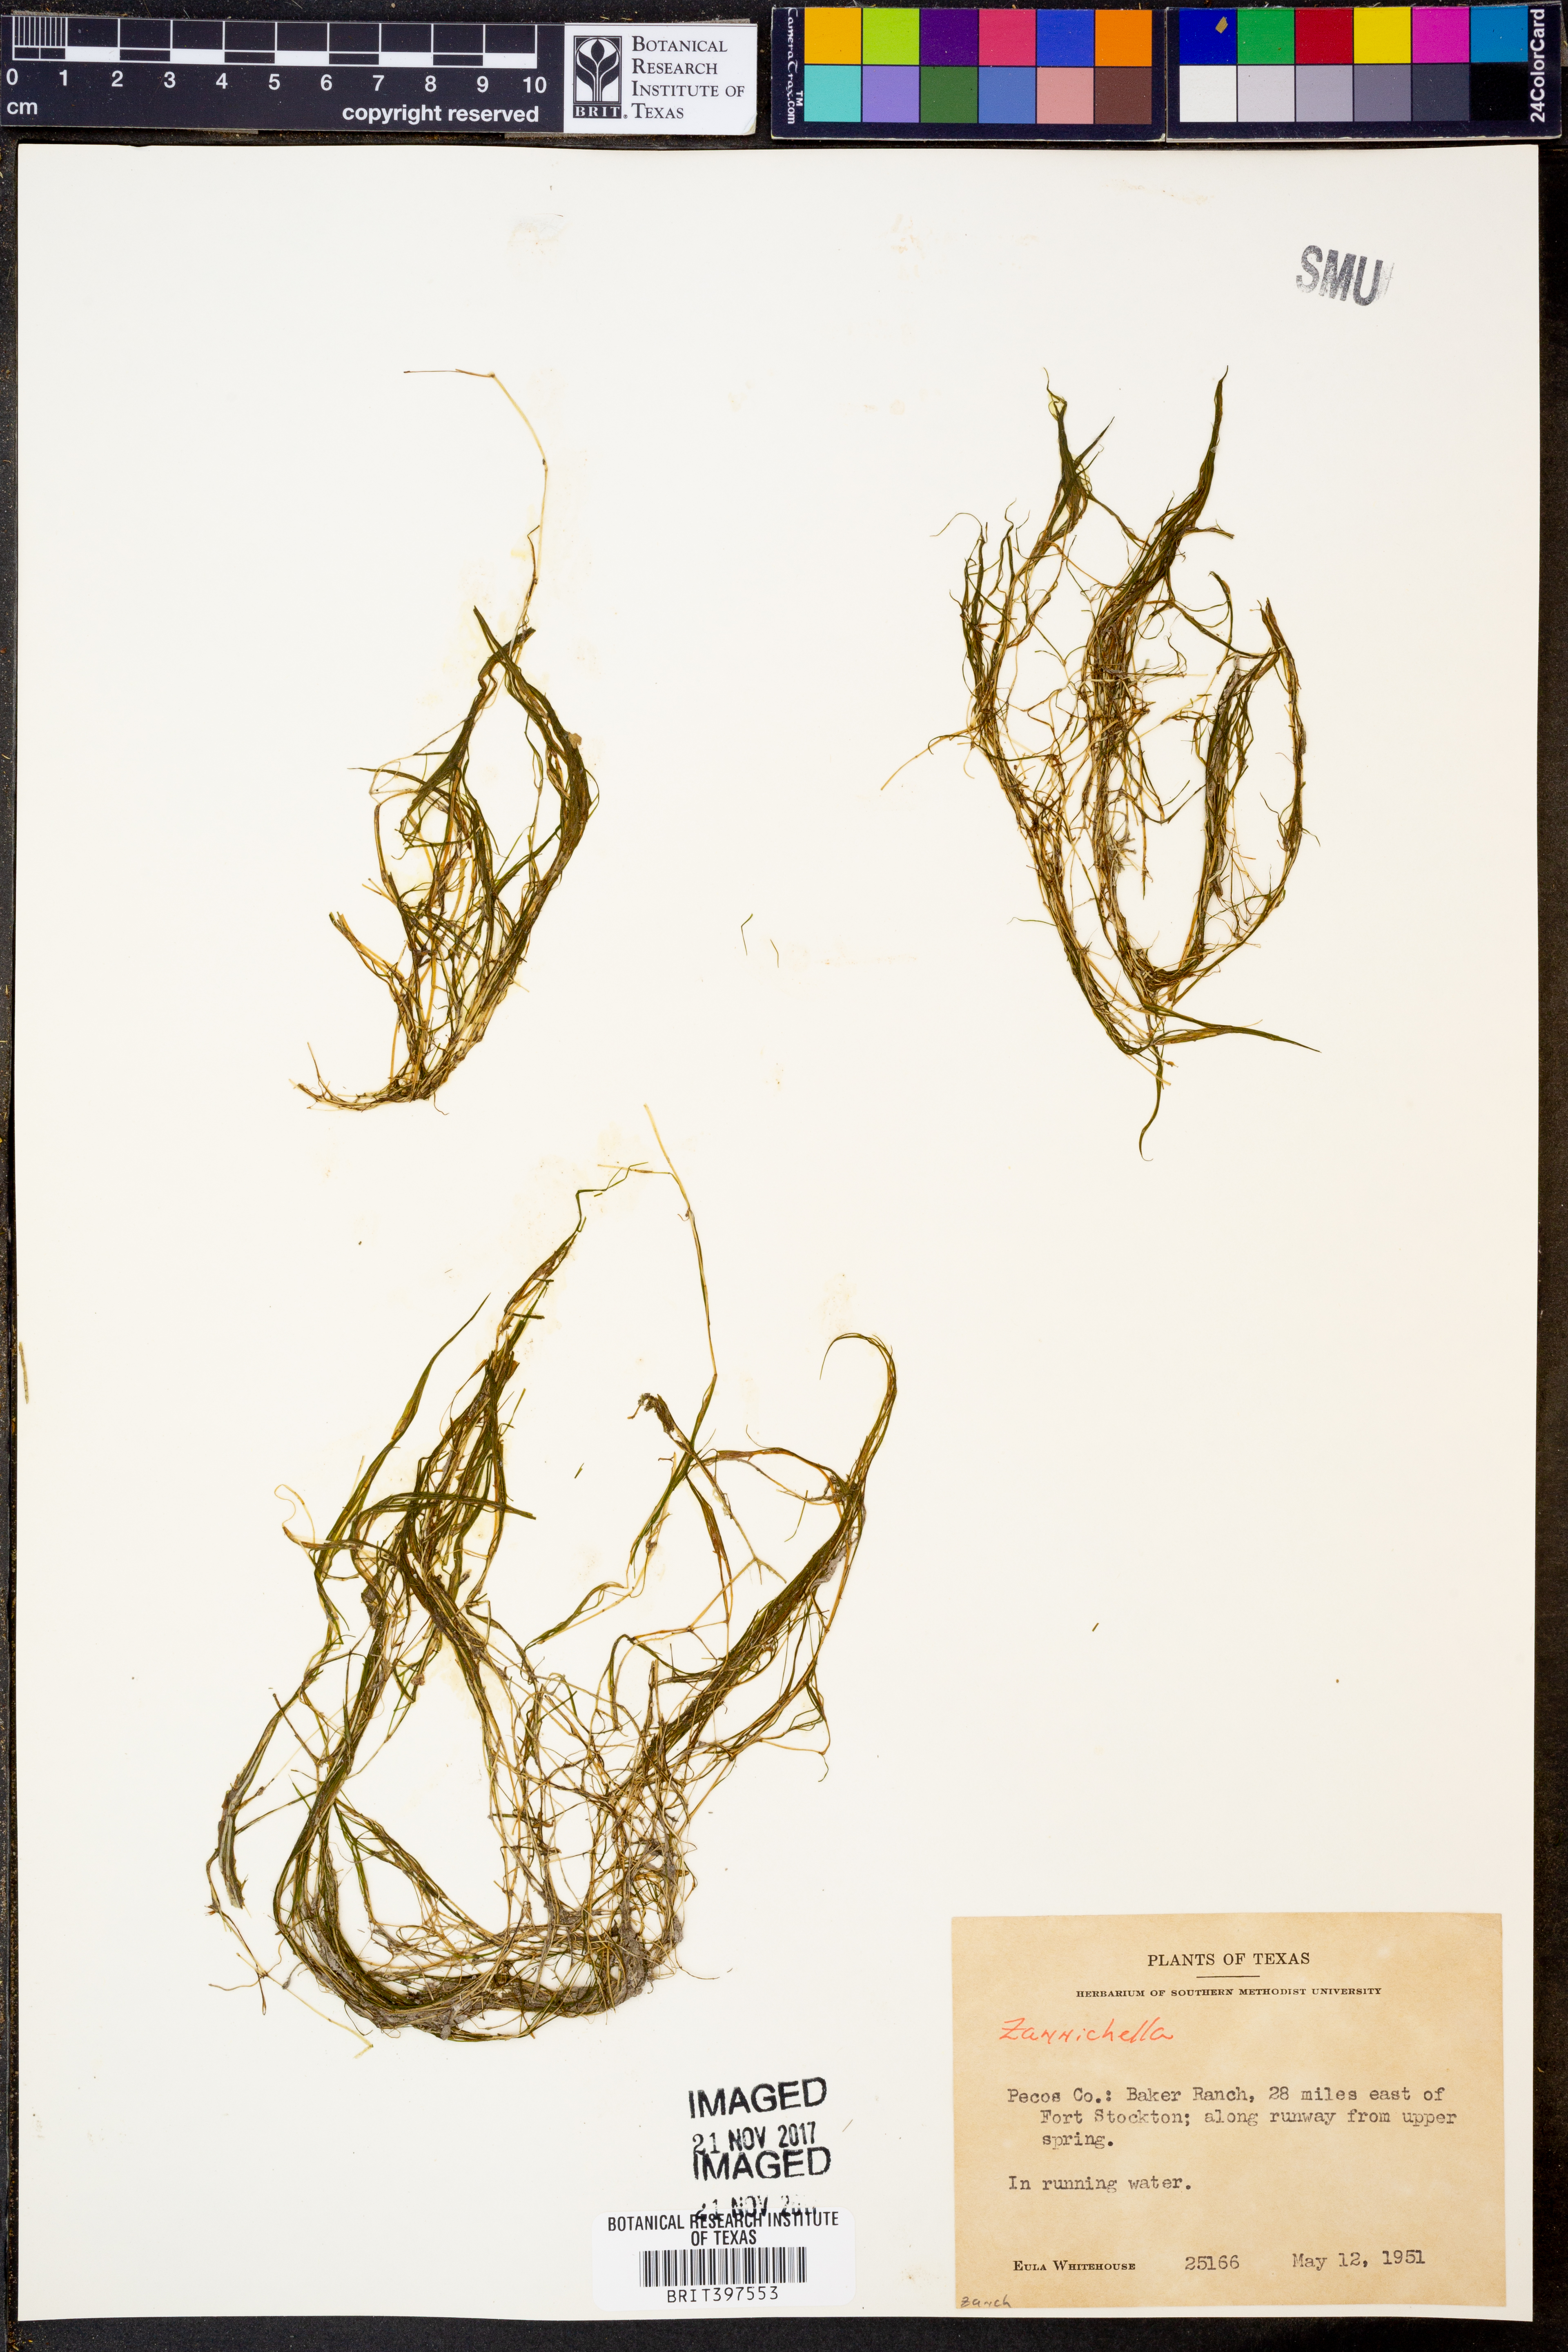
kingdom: Plantae
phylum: Tracheophyta
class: Liliopsida
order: Alismatales
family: Potamogetonaceae
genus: Zannichellia
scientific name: Zannichellia
